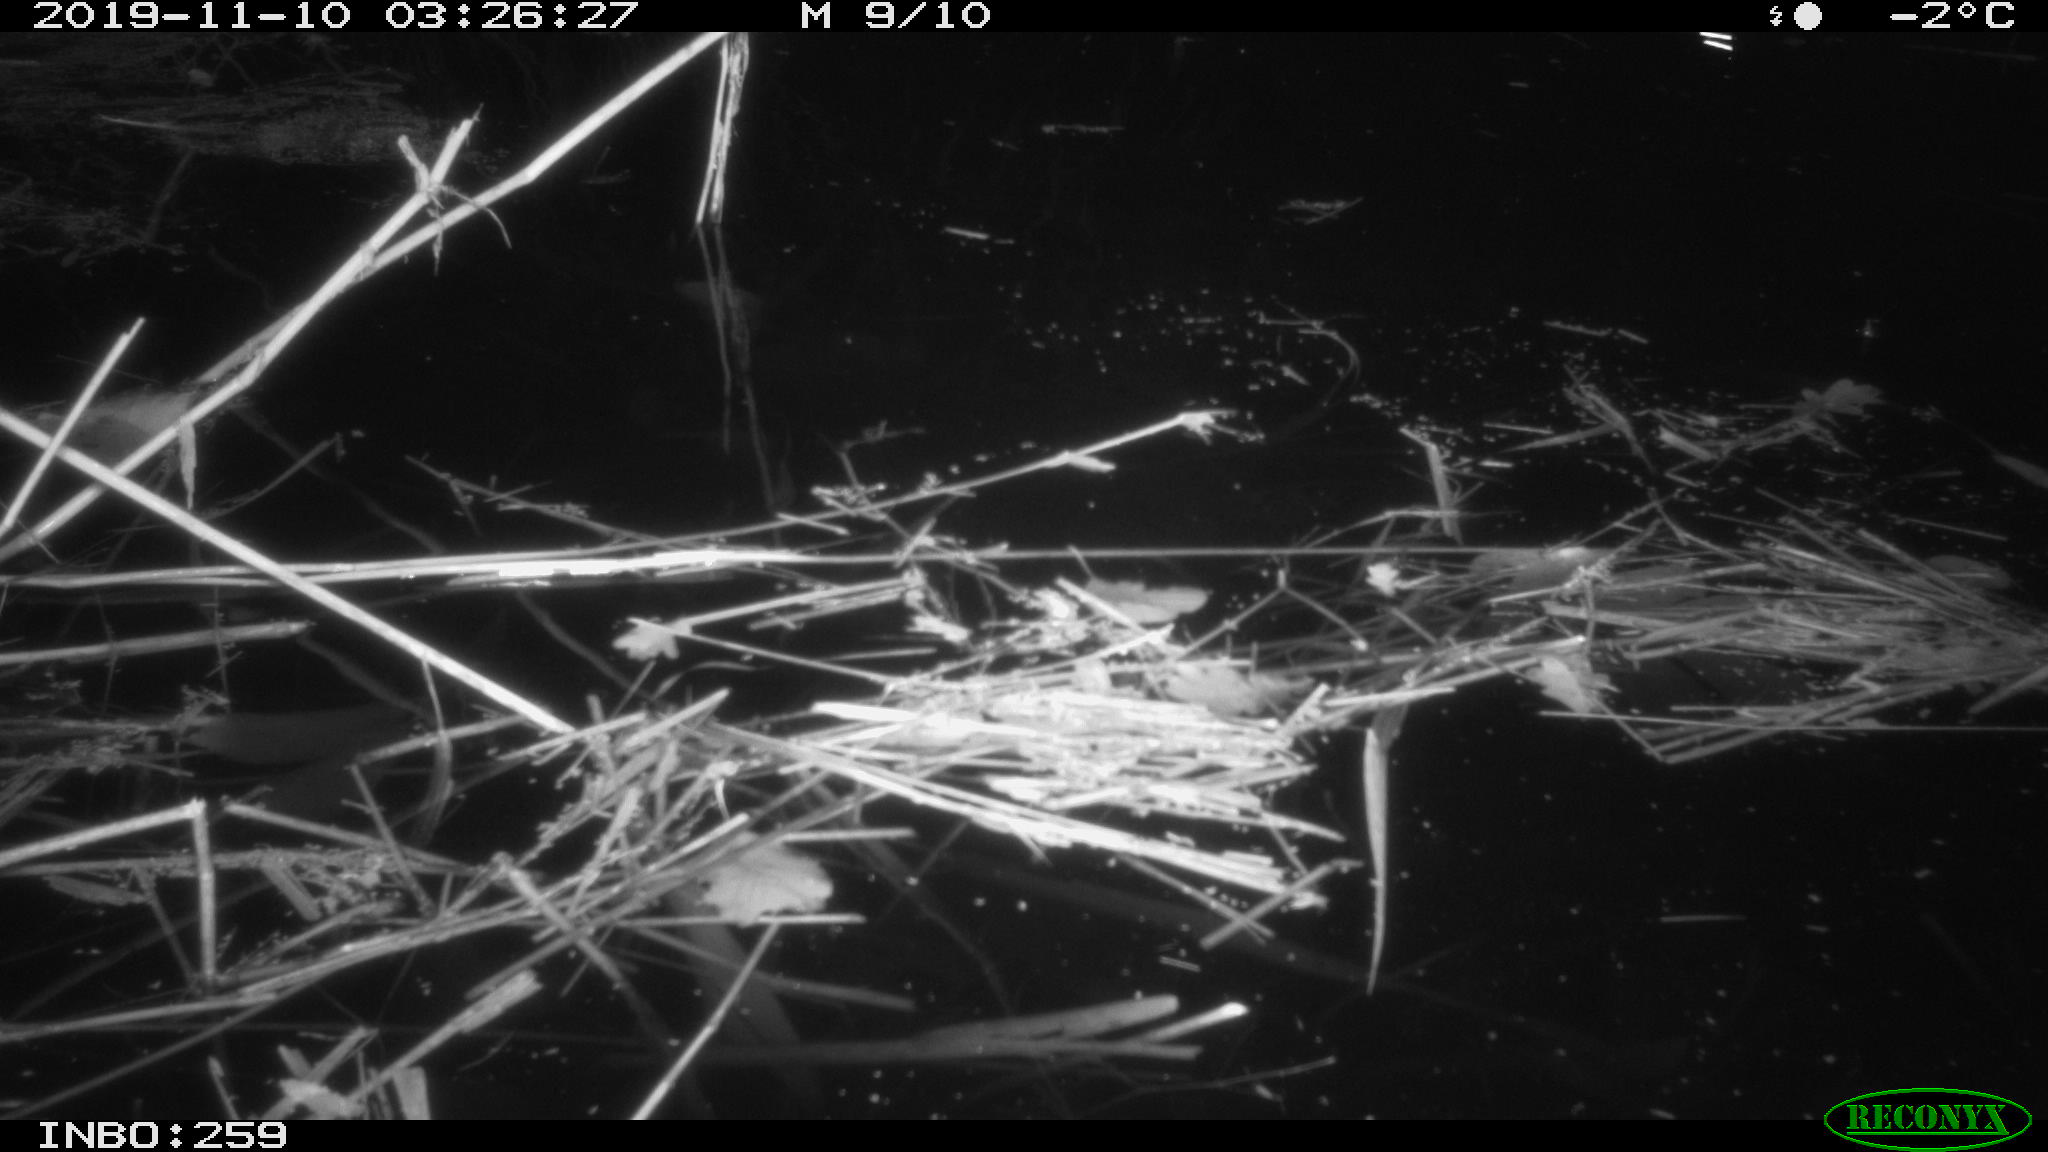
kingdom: Animalia
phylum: Chordata
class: Mammalia
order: Rodentia
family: Muridae
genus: Rattus
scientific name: Rattus norvegicus
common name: Brown rat
